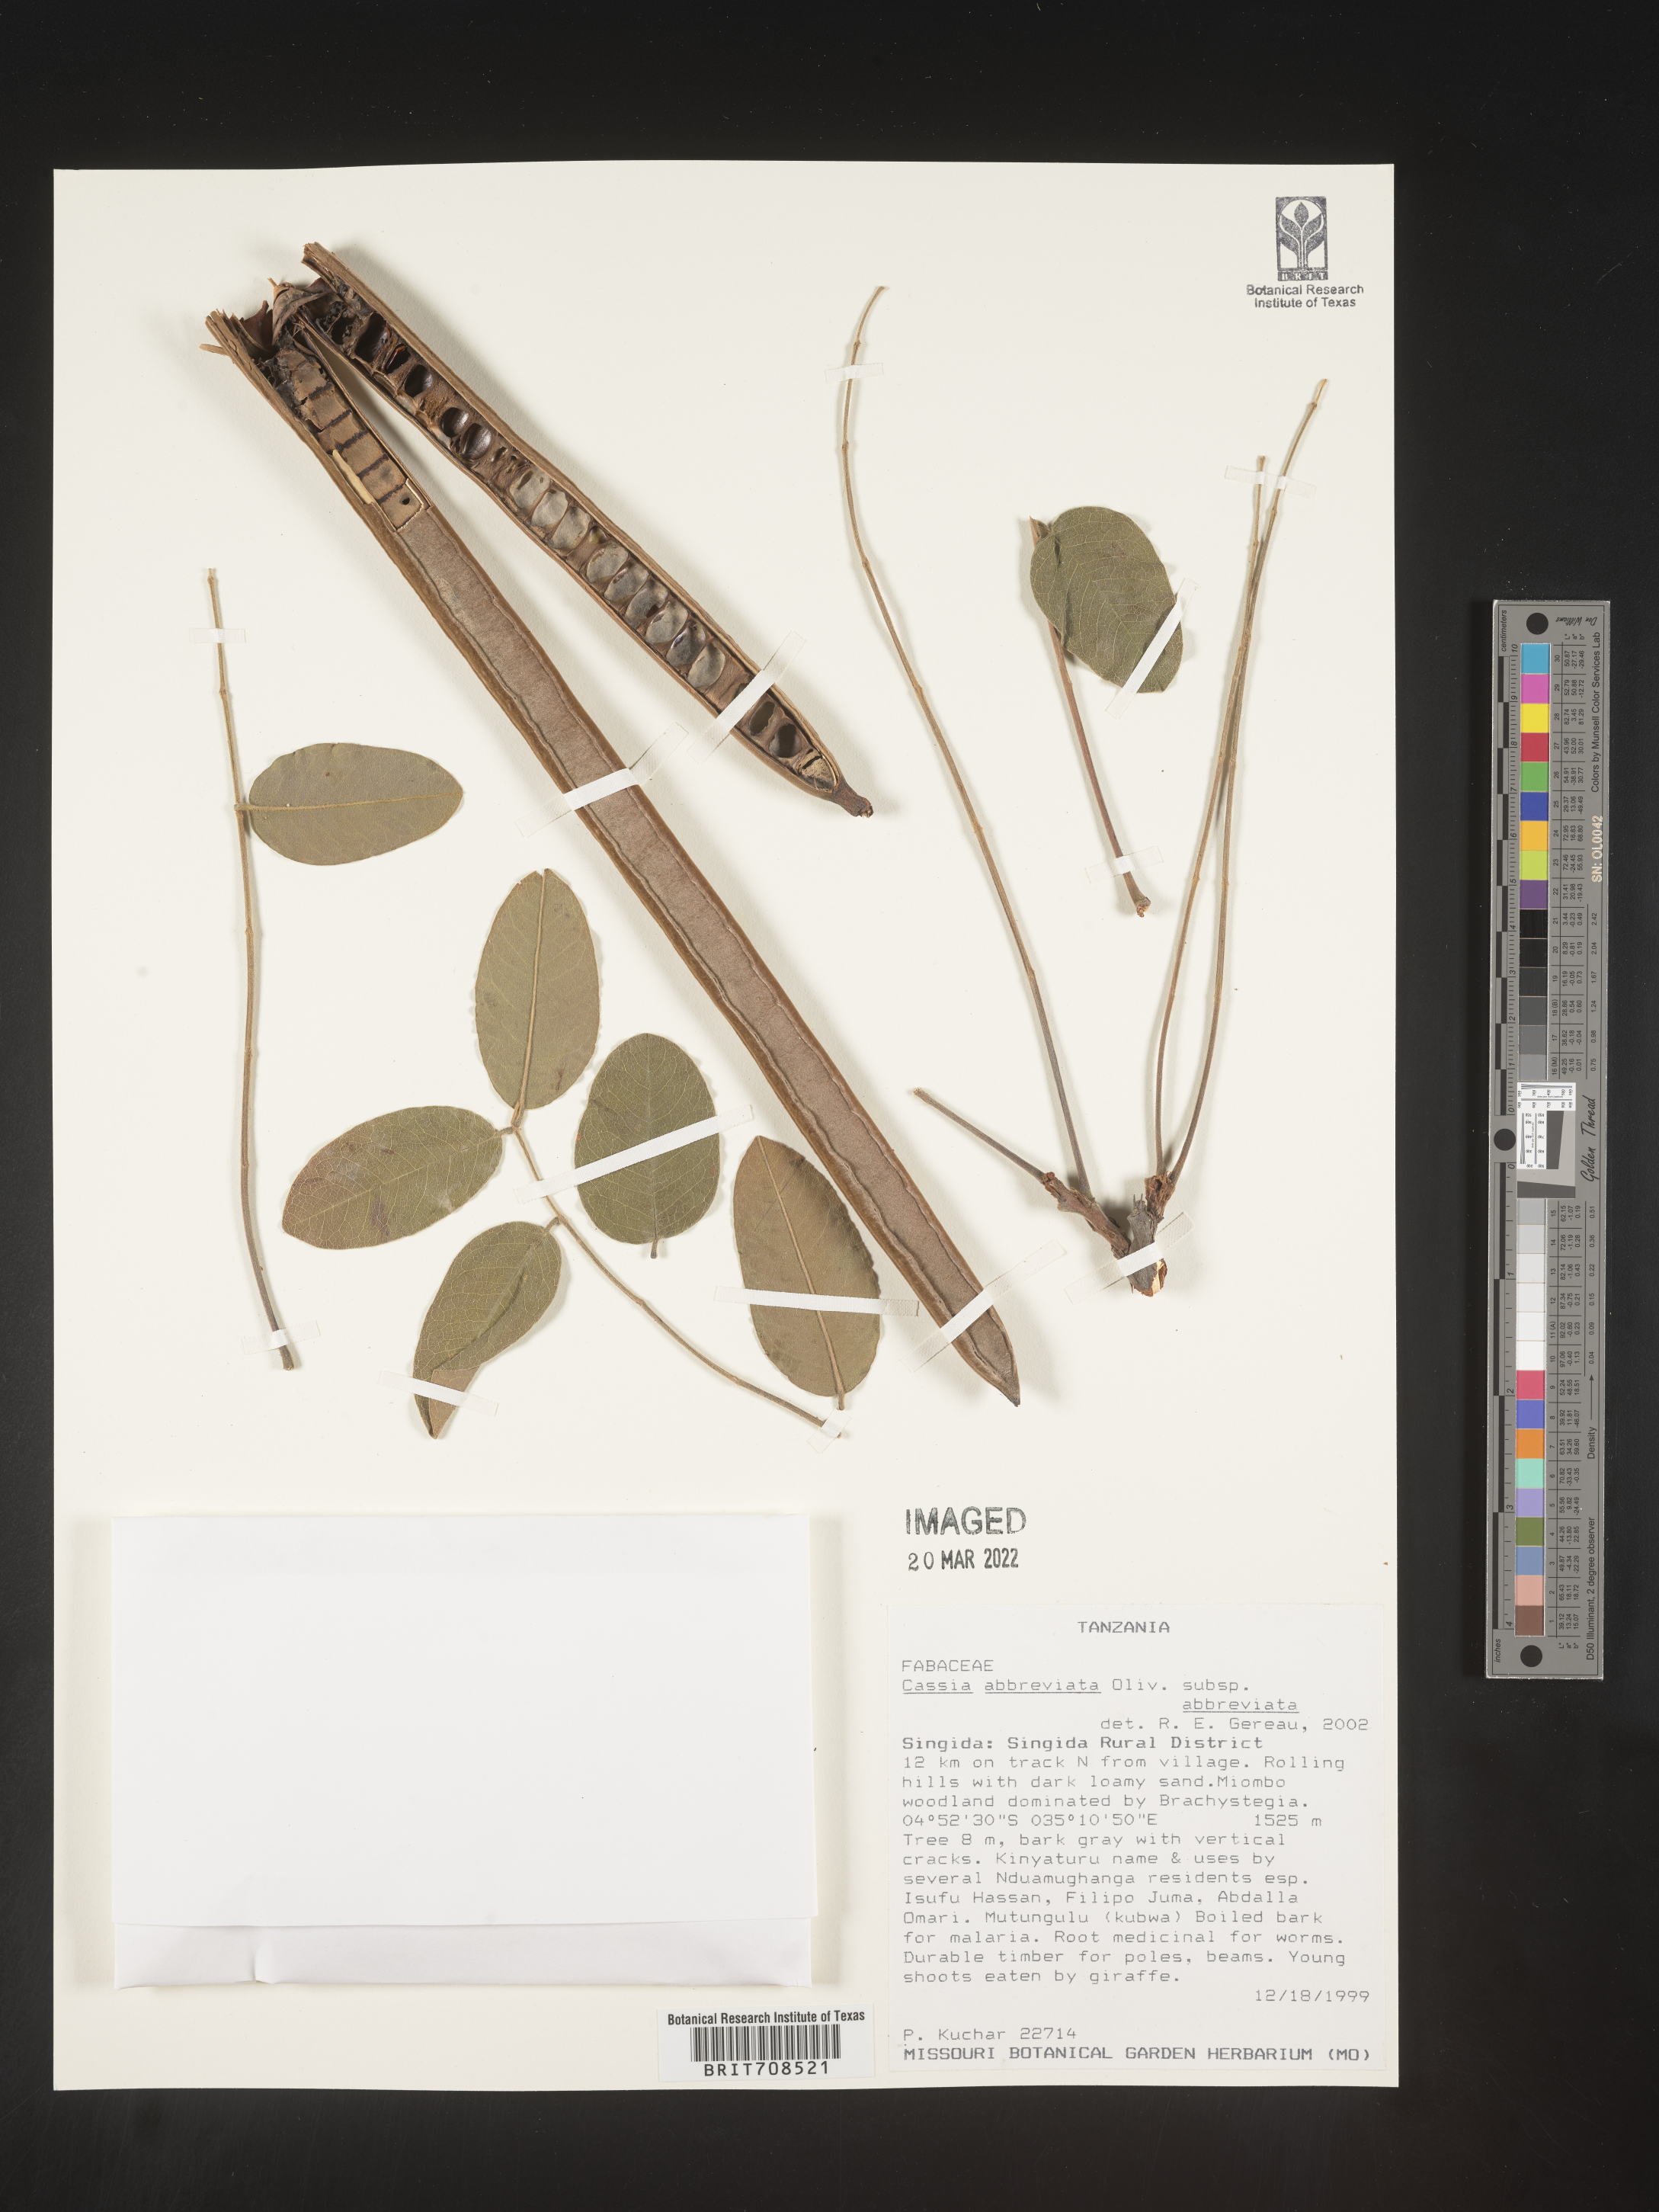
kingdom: Plantae
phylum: Tracheophyta
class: Magnoliopsida
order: Fabales
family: Fabaceae
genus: Cassia
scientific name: Cassia
